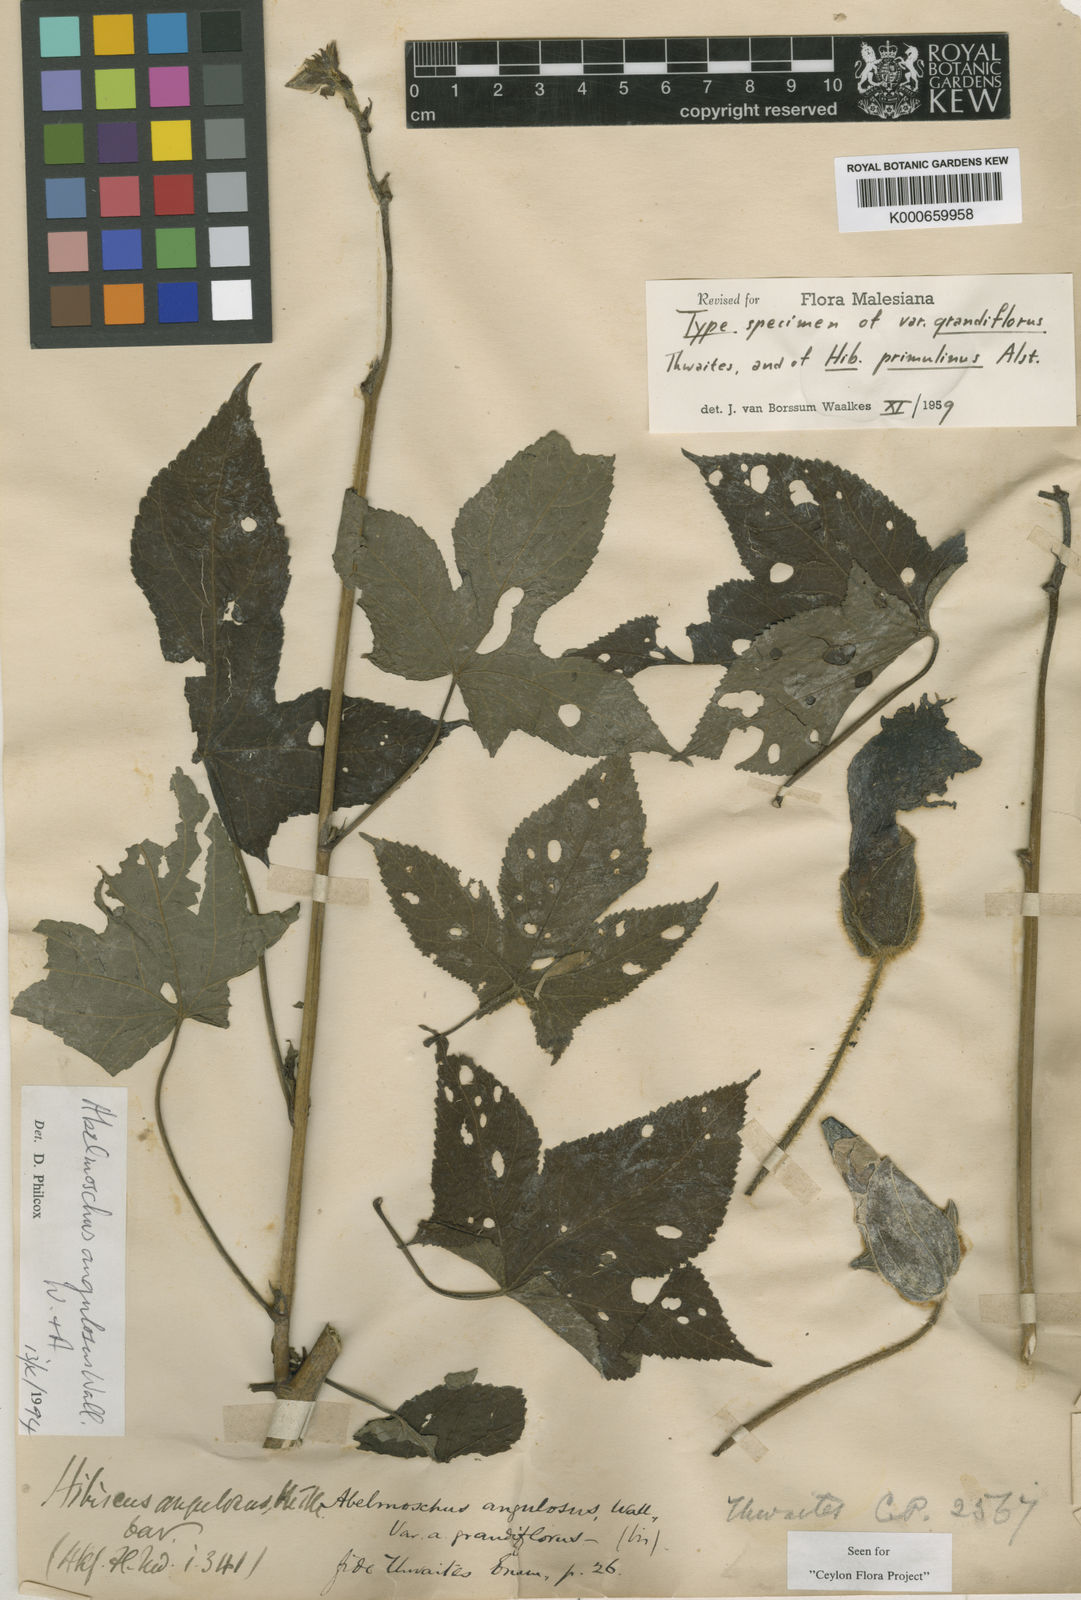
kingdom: Plantae
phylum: Tracheophyta
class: Magnoliopsida
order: Malvales
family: Malvaceae
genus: Abelmoschus
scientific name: Abelmoschus angulosus
